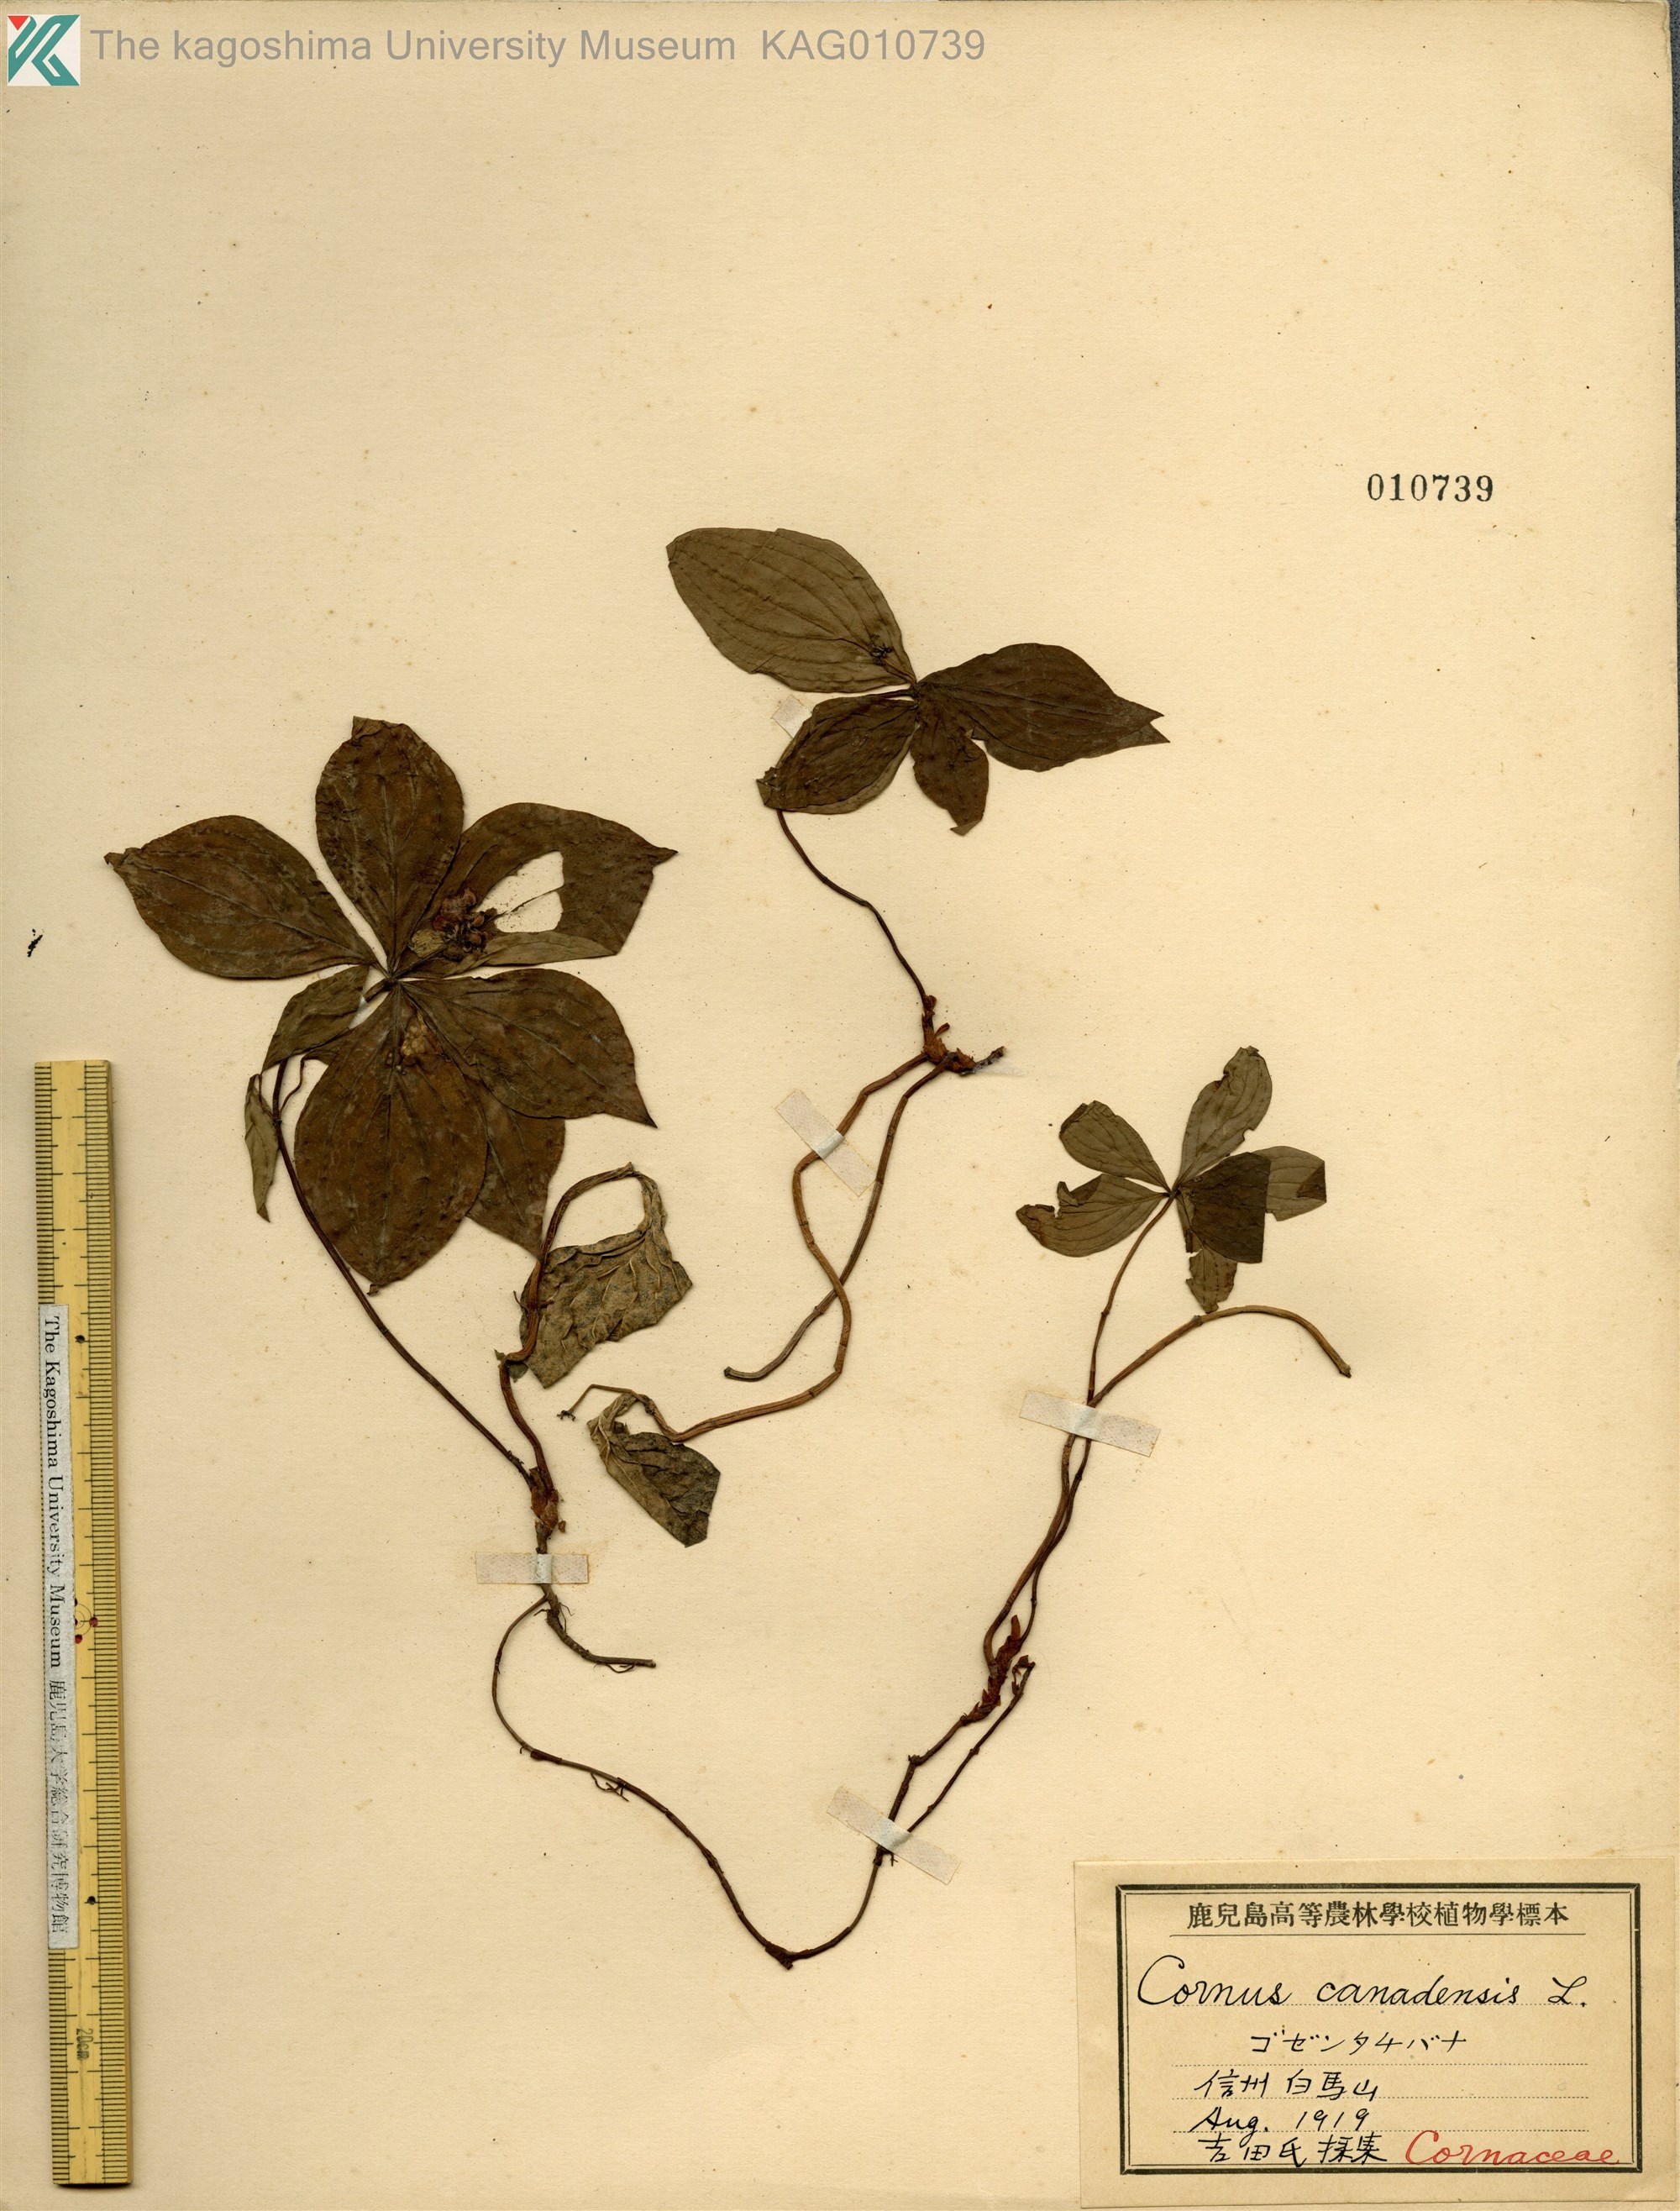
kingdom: Plantae
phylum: Tracheophyta
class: Magnoliopsida
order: Cornales
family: Cornaceae
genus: Cornus
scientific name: Cornus canadensis
